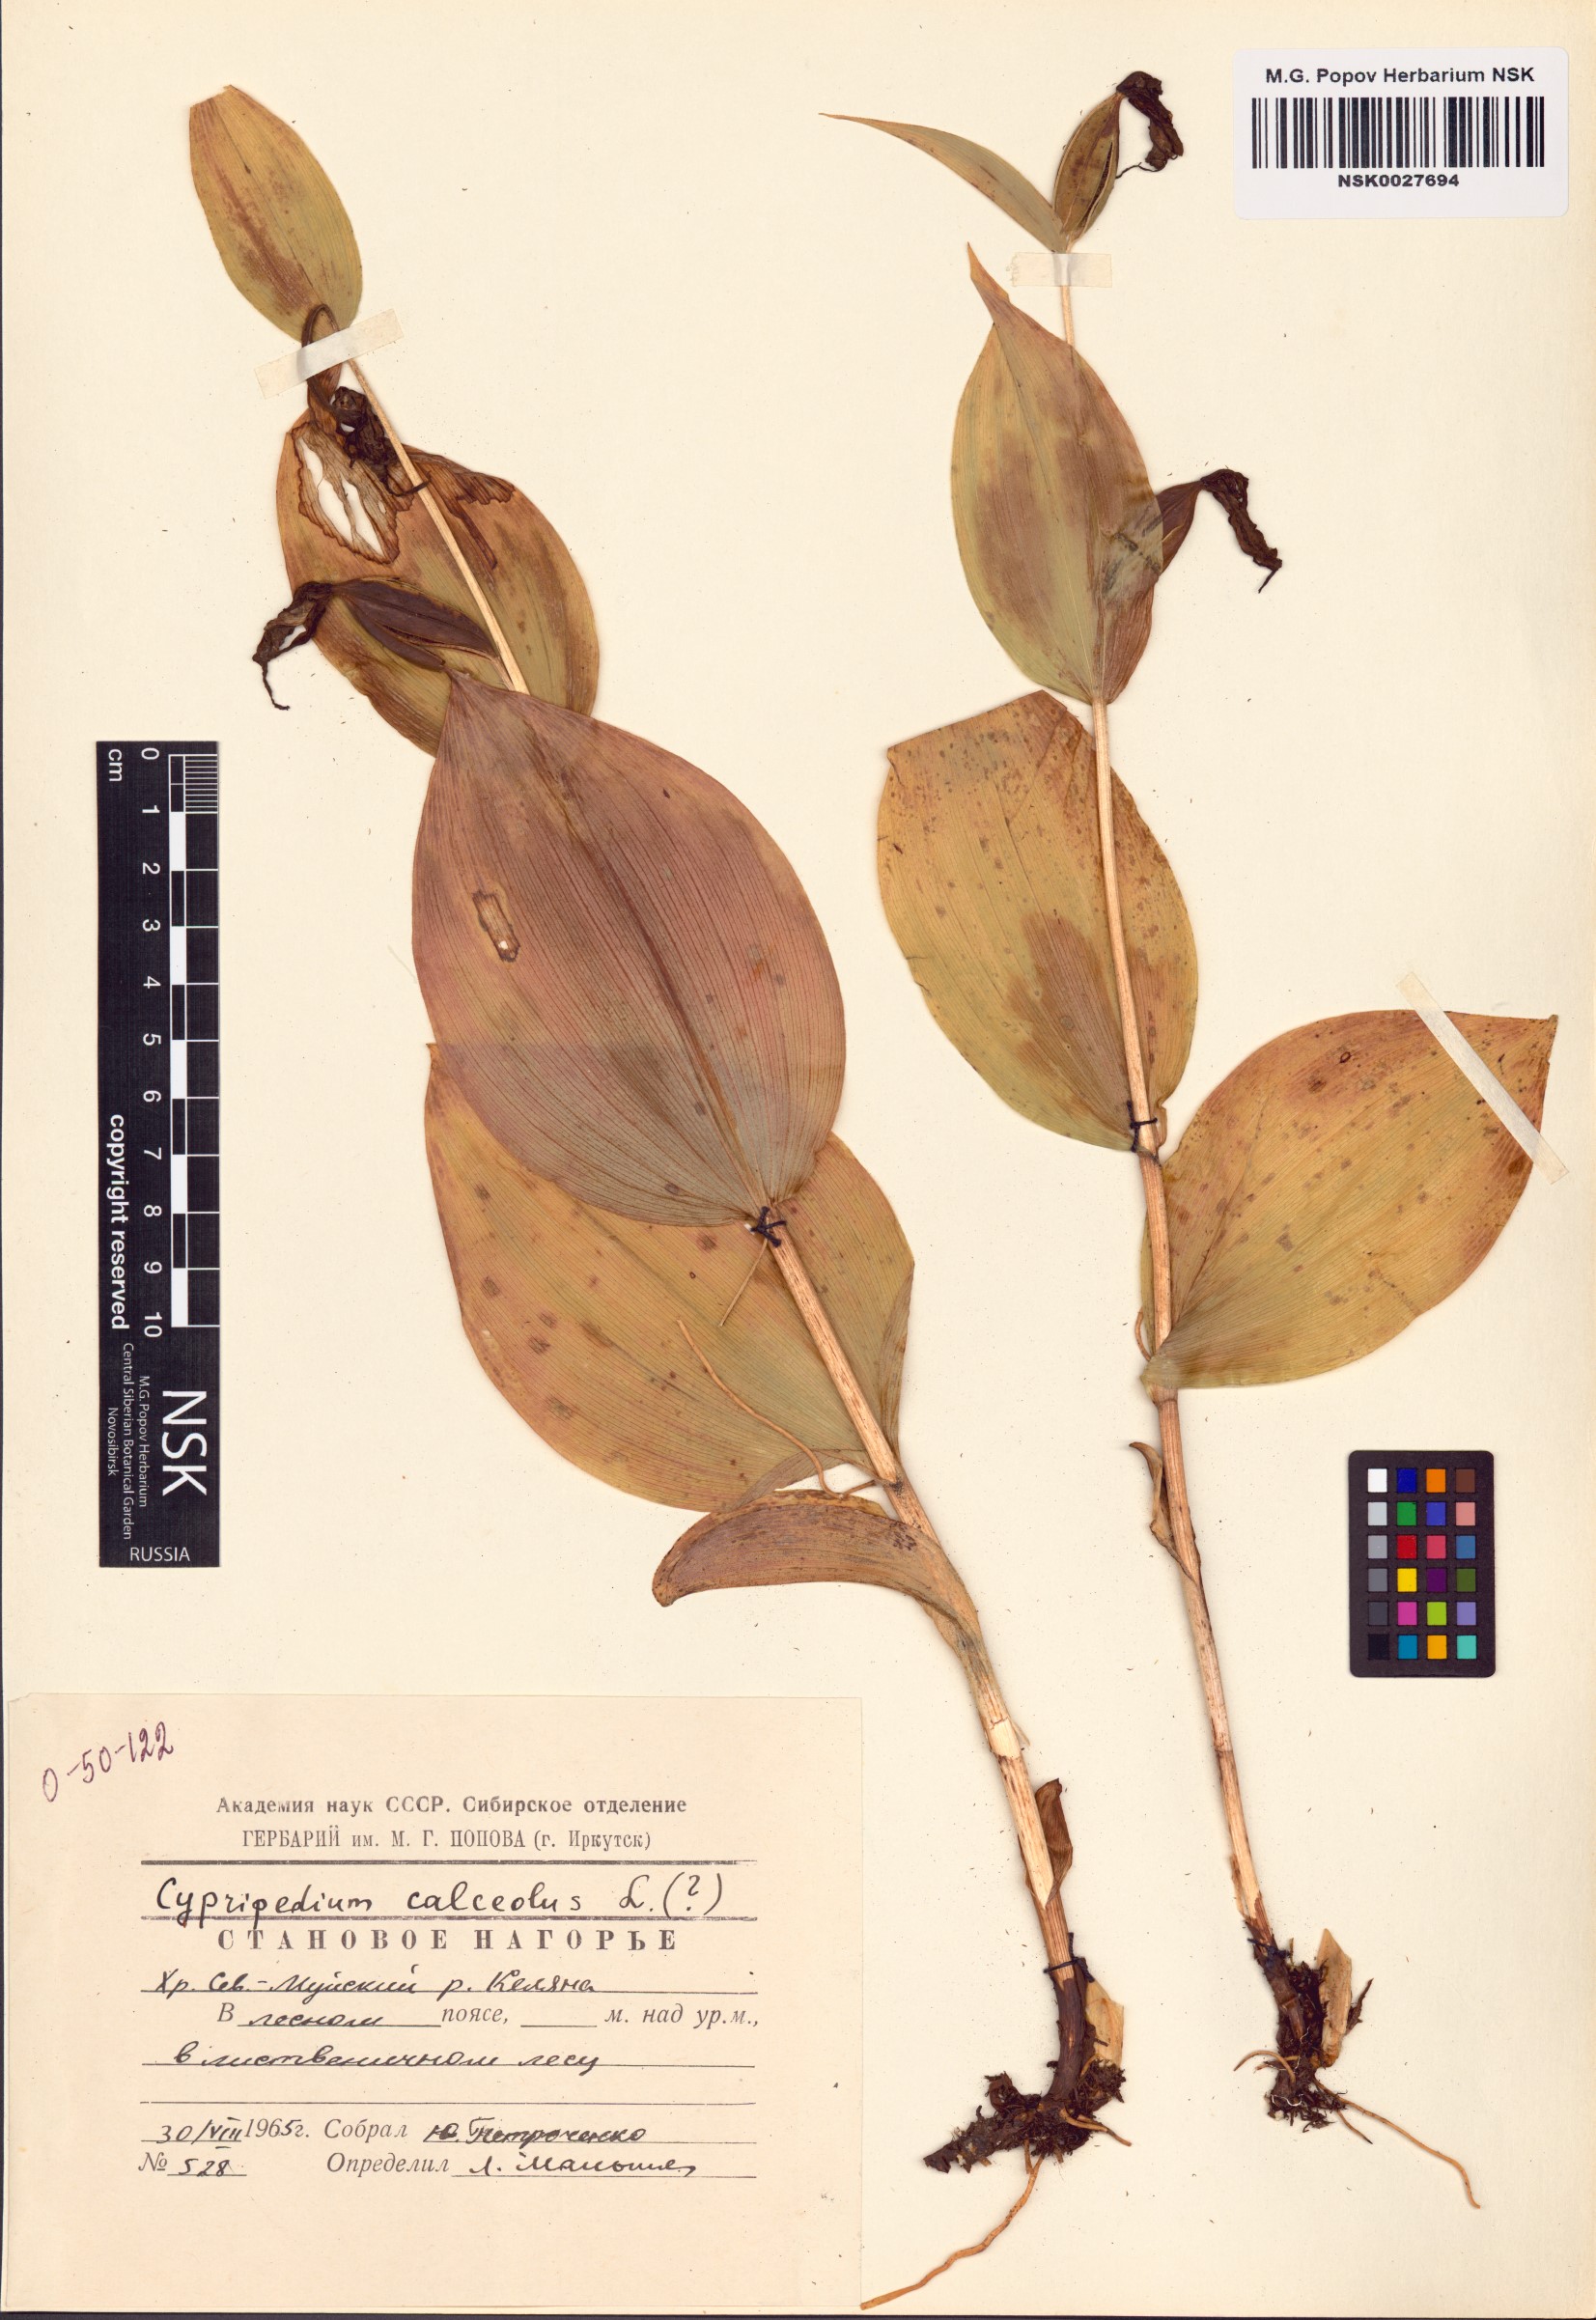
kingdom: Plantae
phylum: Tracheophyta
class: Liliopsida
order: Asparagales
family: Orchidaceae
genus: Cypripedium
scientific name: Cypripedium calceolus
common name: Lady's-slipper
